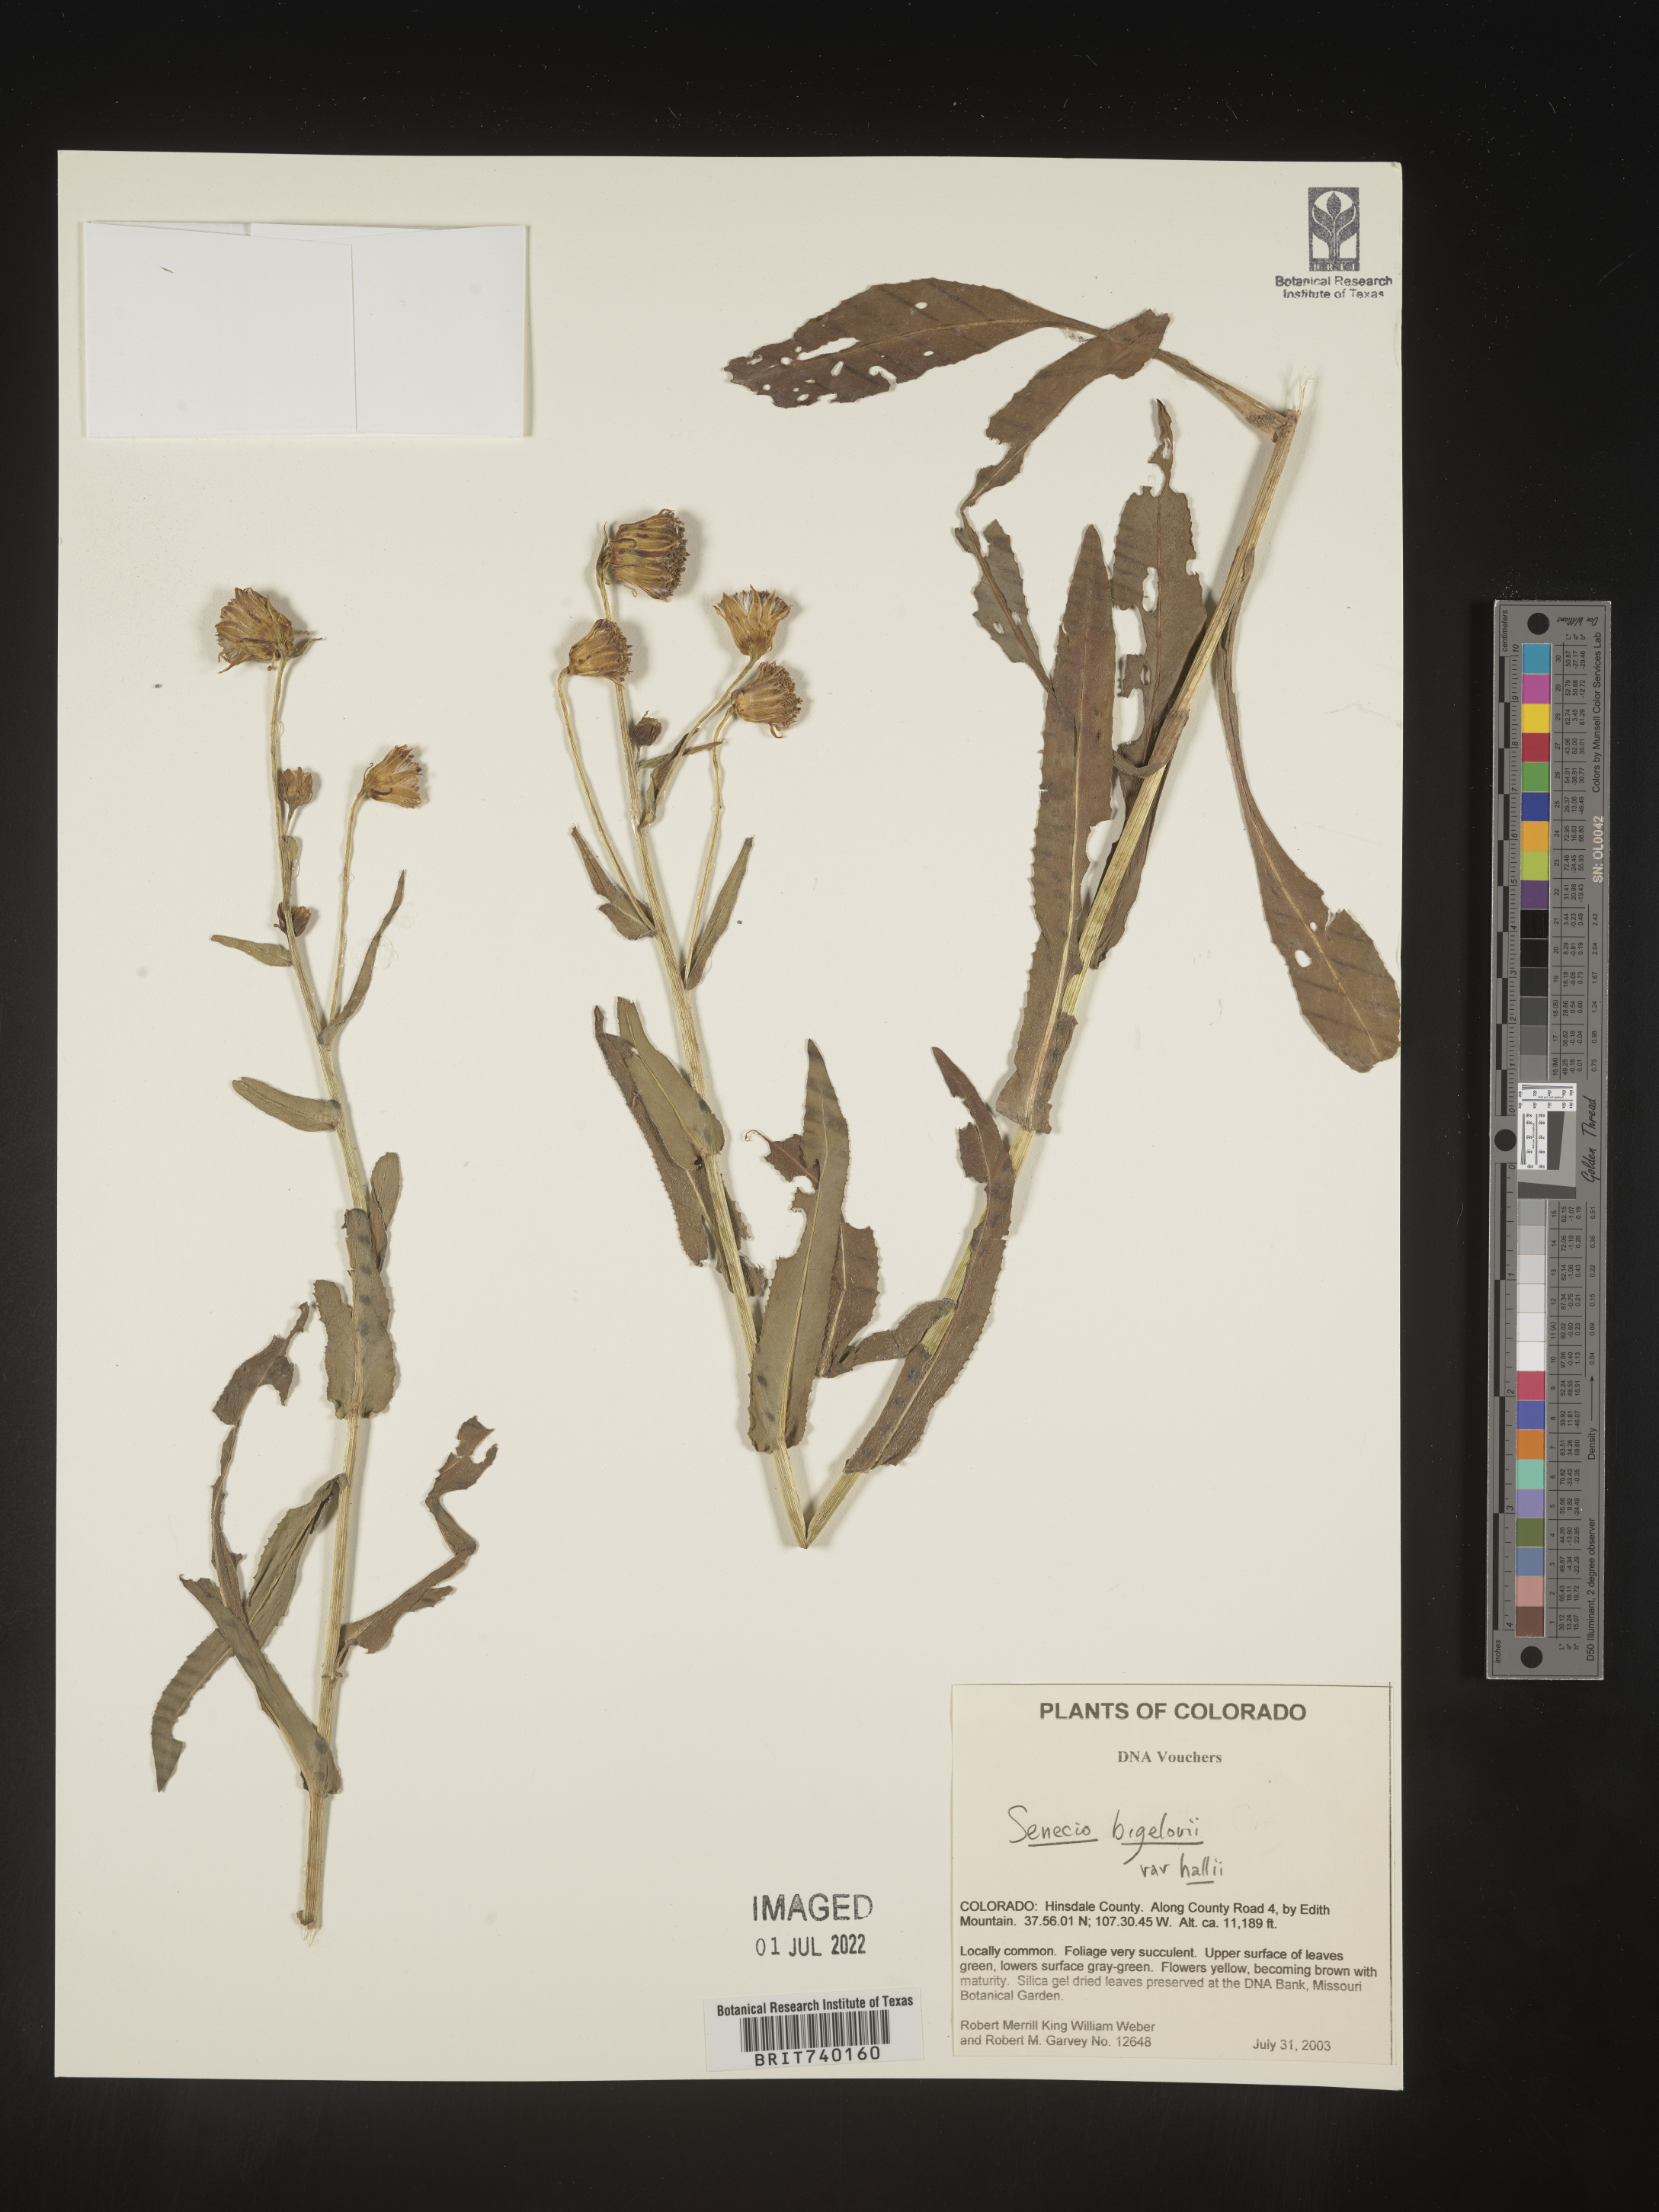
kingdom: Plantae
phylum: Tracheophyta
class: Magnoliopsida
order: Asterales
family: Asteraceae
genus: Senecio
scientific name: Senecio bigelovii
